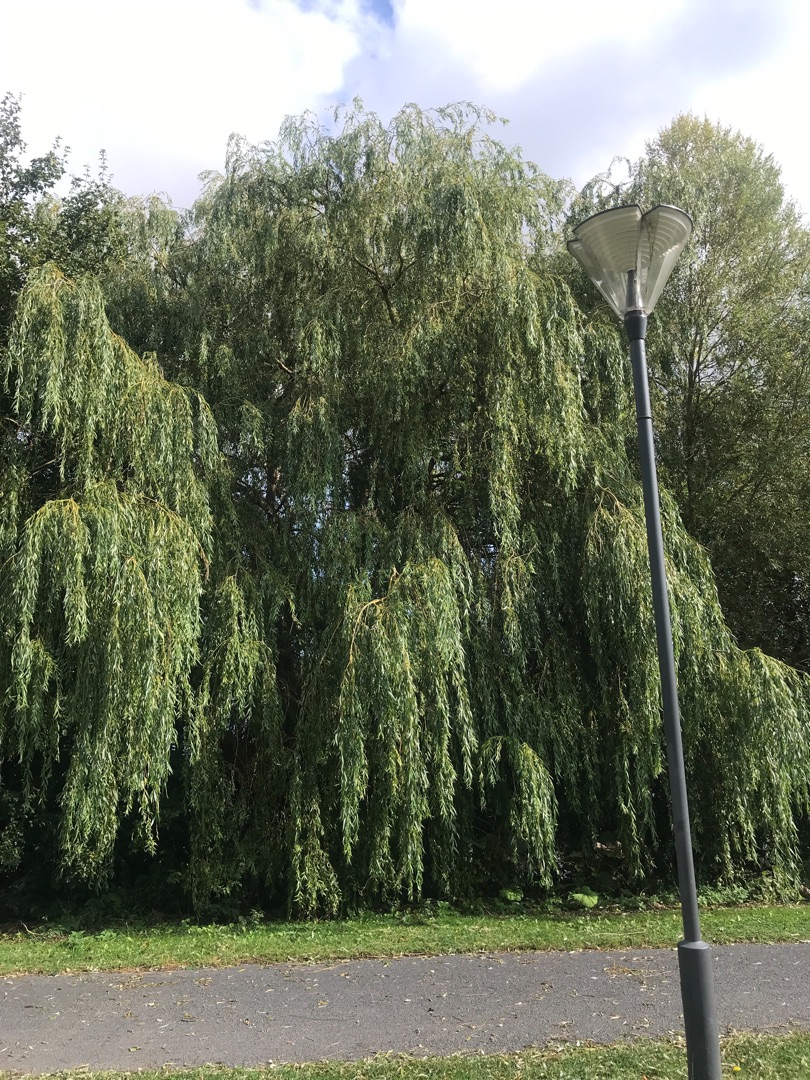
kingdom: Plantae
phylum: Tracheophyta
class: Magnoliopsida
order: Malpighiales
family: Salicaceae
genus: Salix
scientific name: Salix sepulcralis
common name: Hænge-pil
